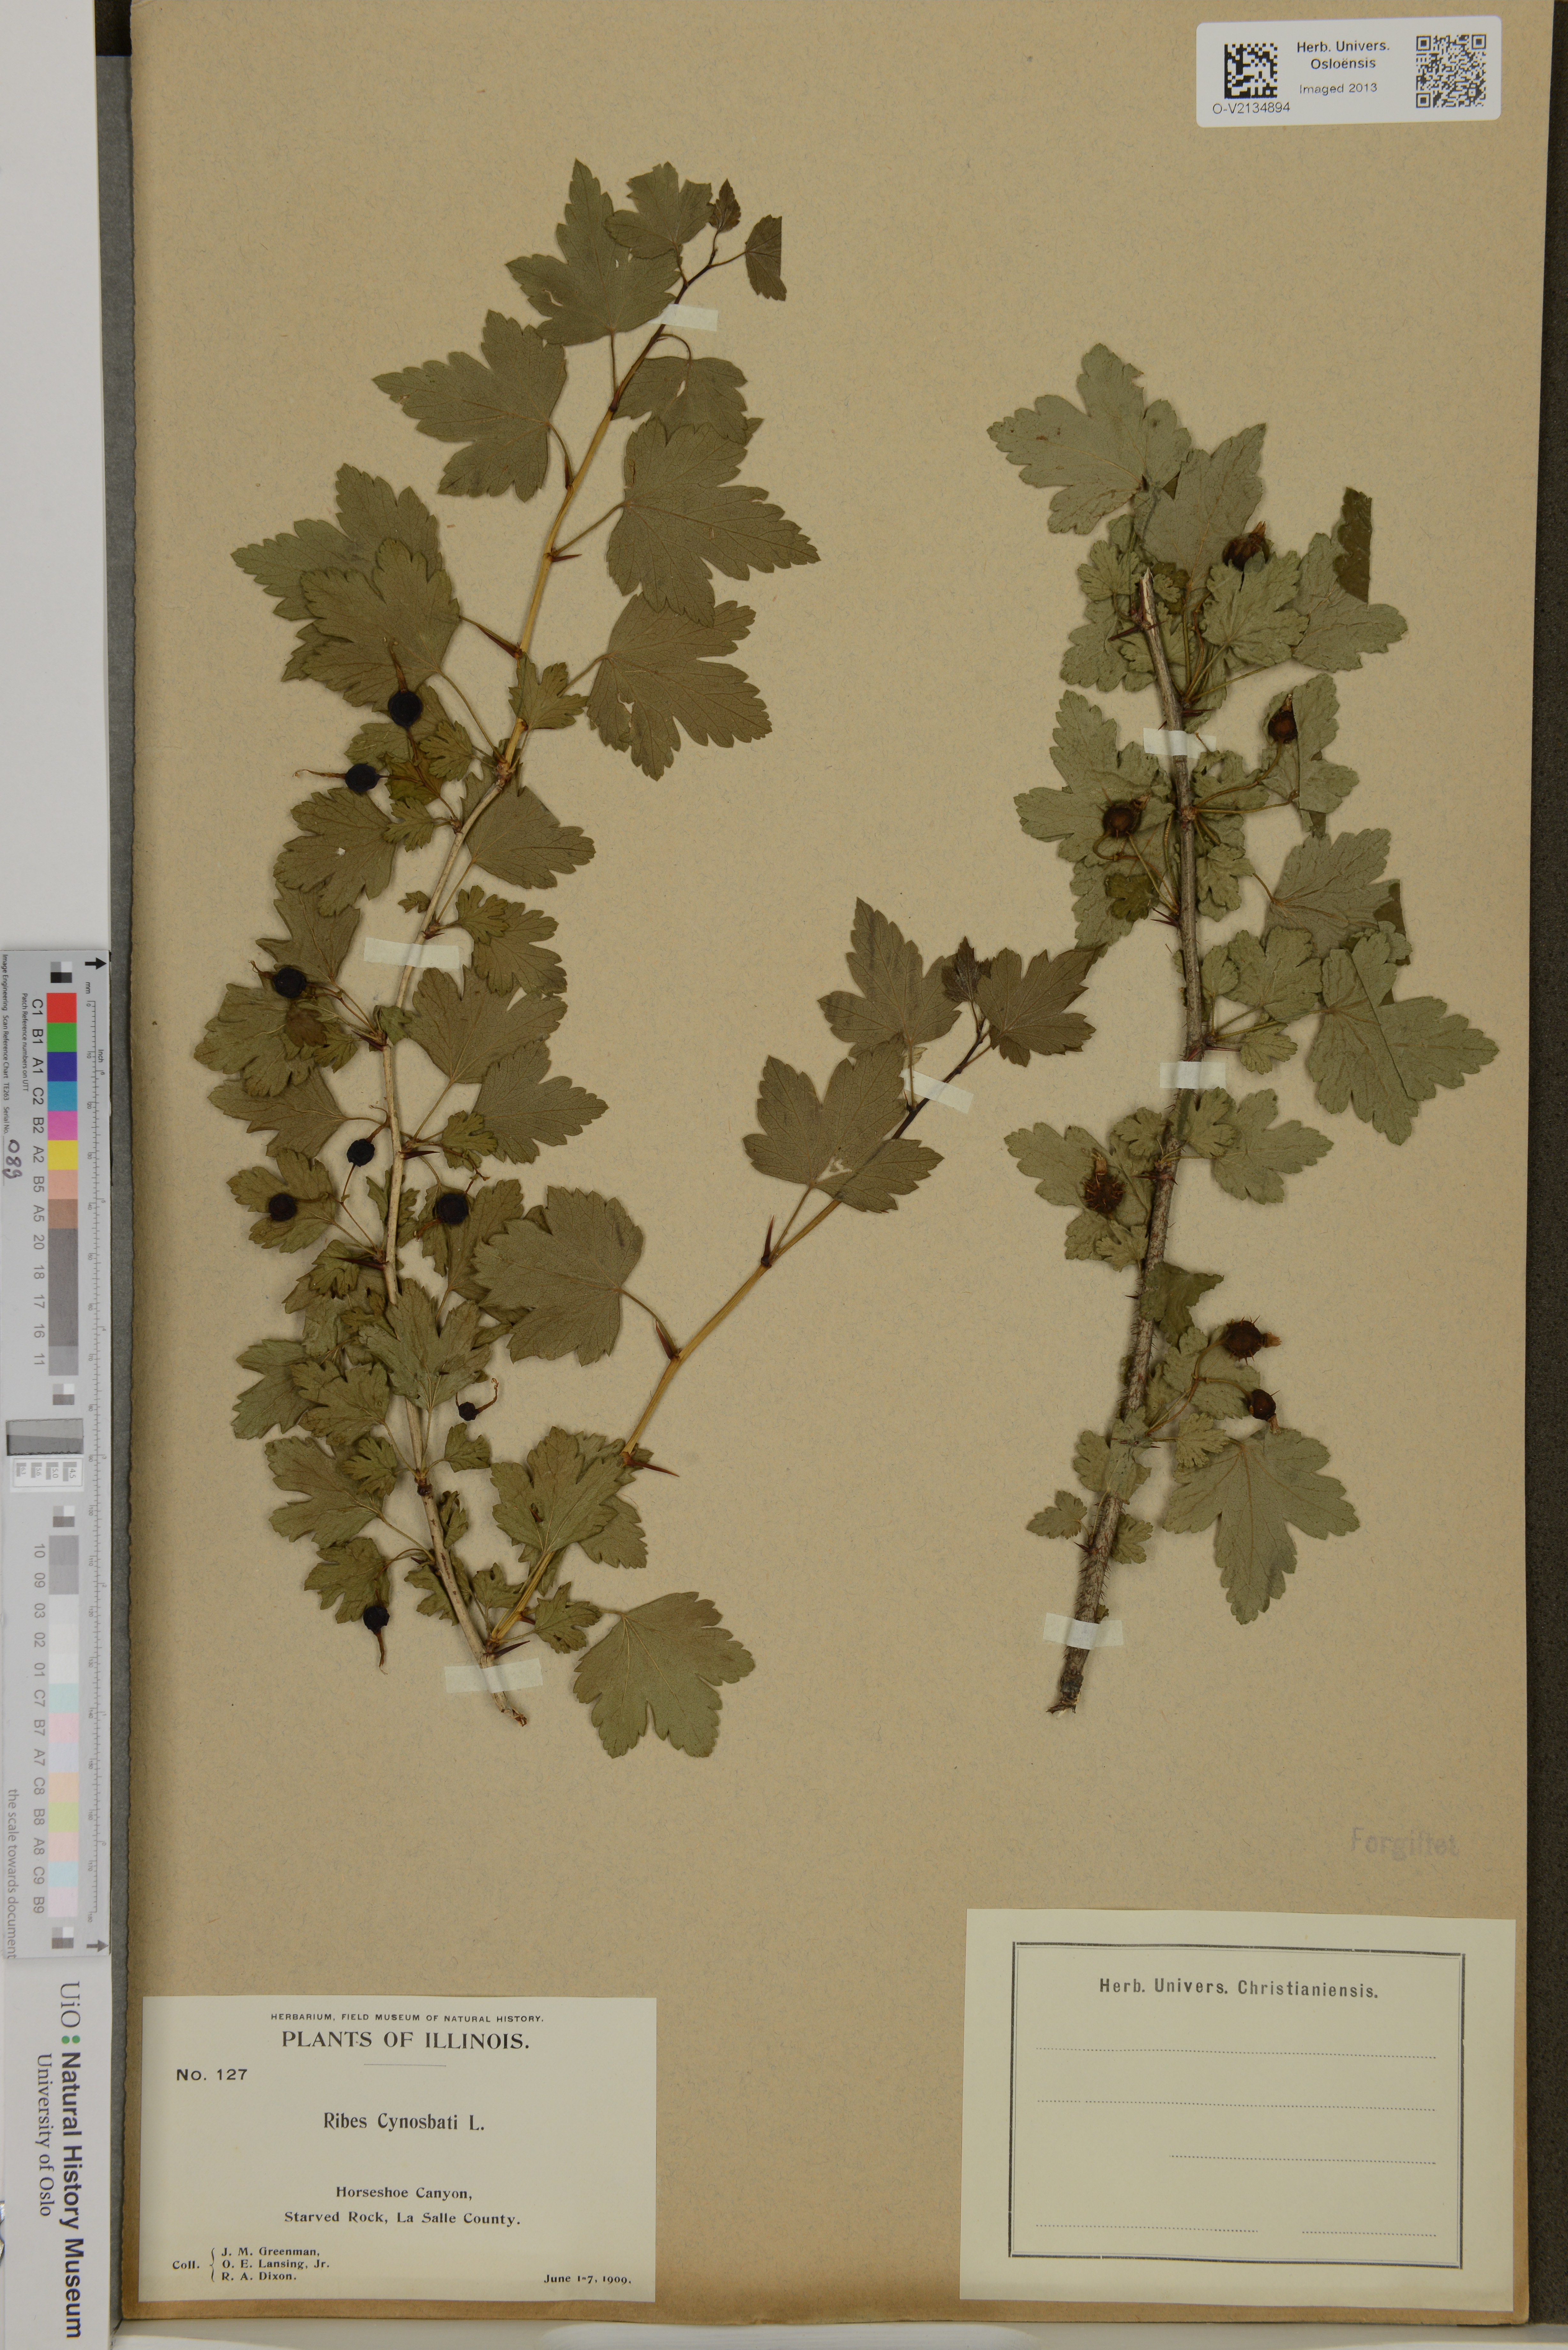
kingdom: Plantae
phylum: Tracheophyta
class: Magnoliopsida
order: Saxifragales
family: Grossulariaceae
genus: Ribes
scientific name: Ribes cynosbati
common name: American gooseberry
